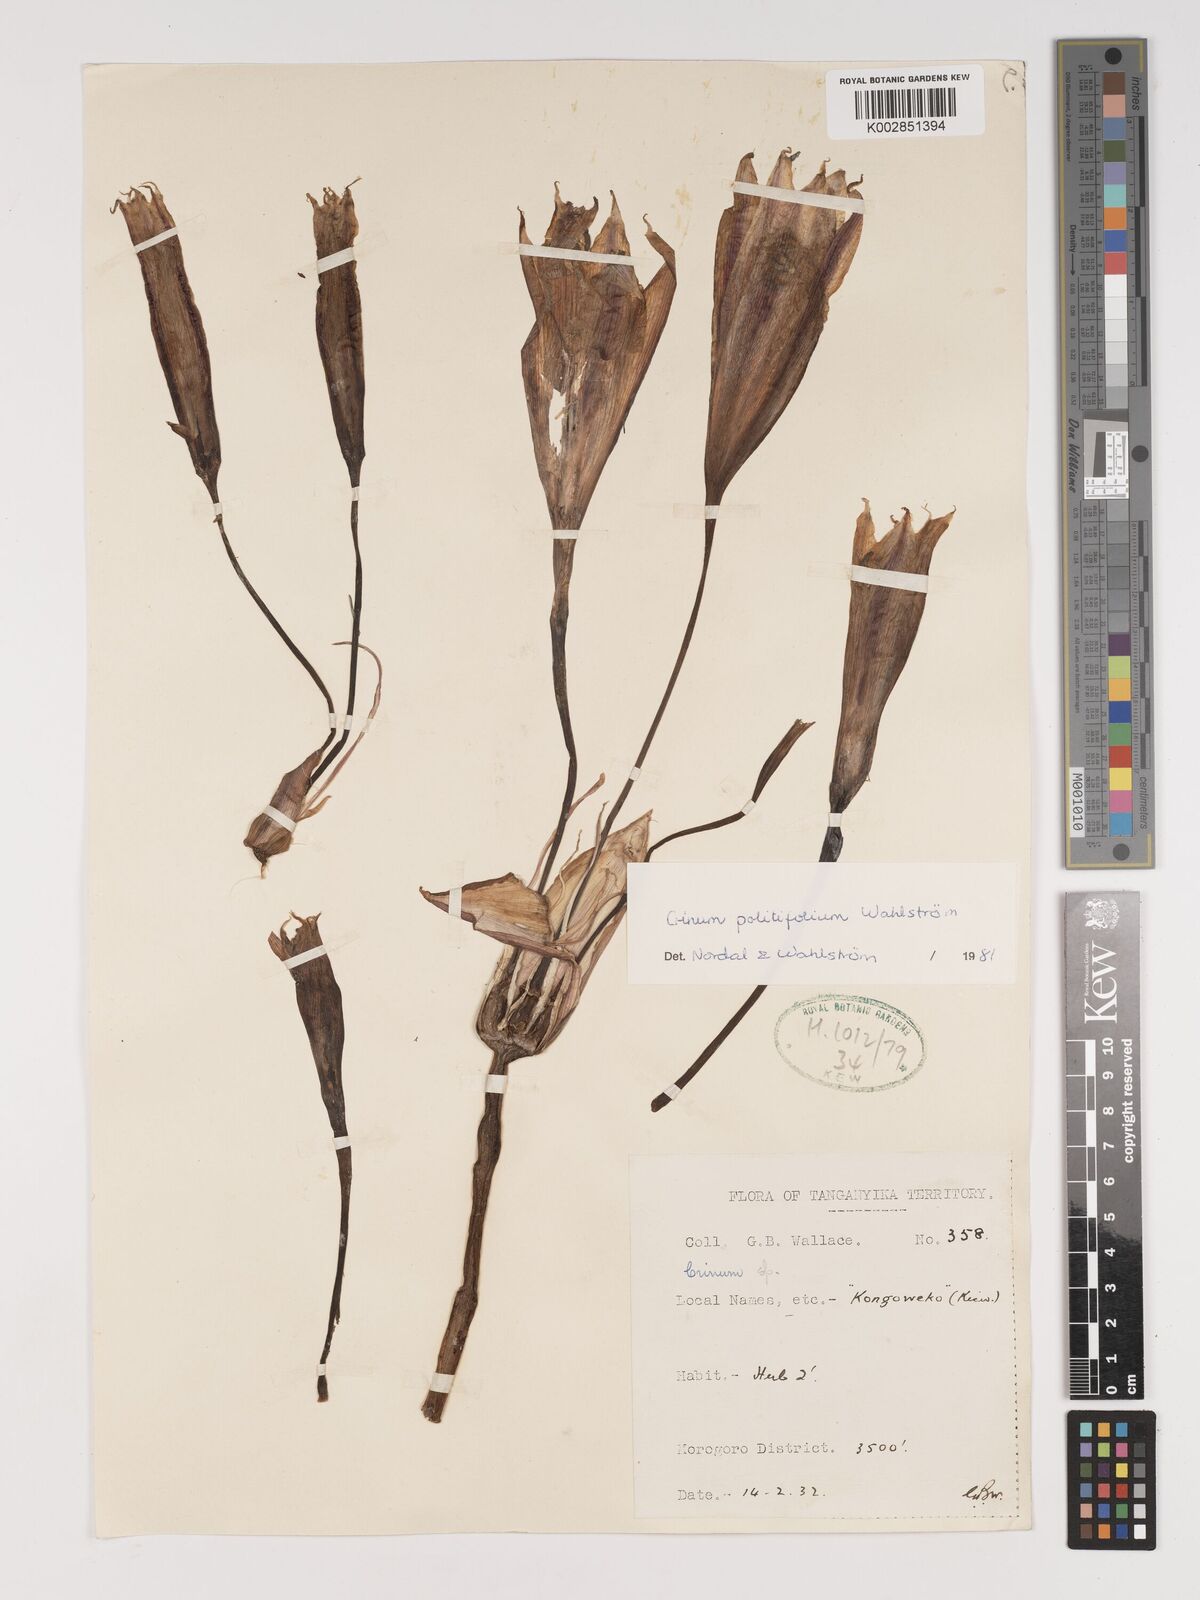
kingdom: Plantae
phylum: Tracheophyta
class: Liliopsida
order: Asparagales
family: Amaryllidaceae
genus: Crinum
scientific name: Crinum politifolium
